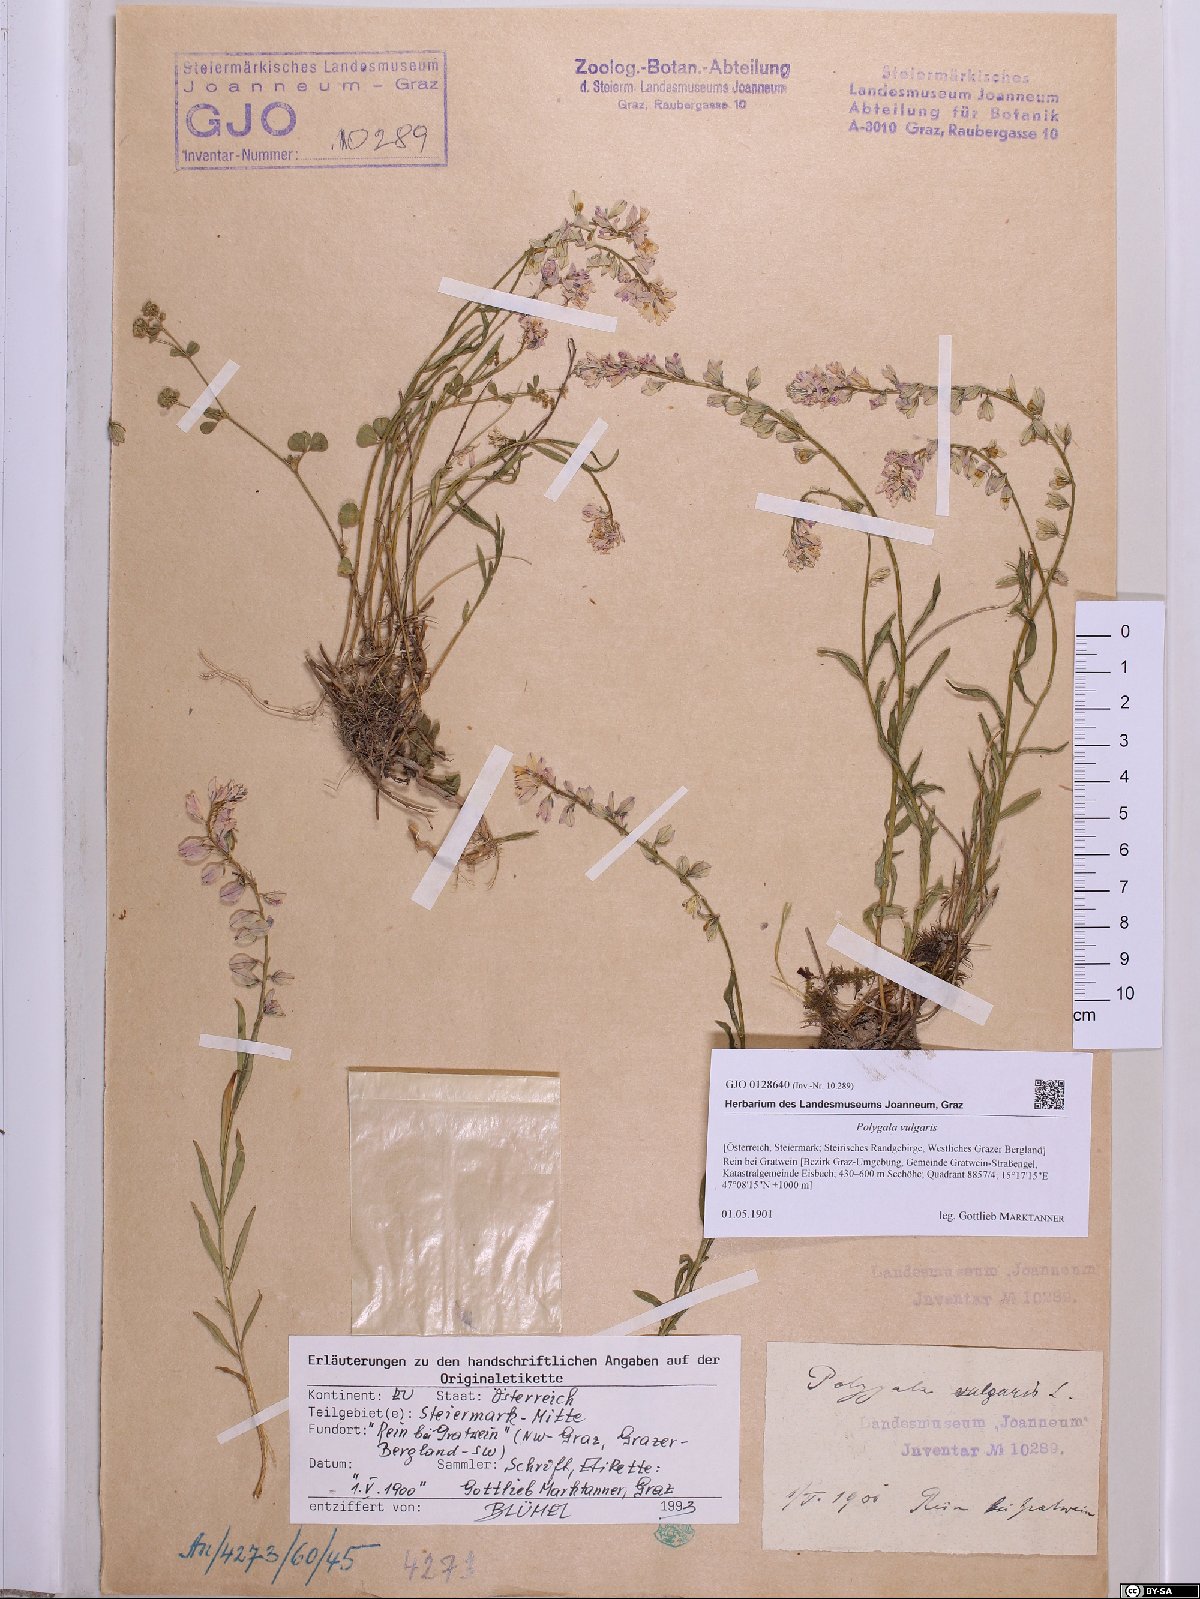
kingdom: Plantae
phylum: Tracheophyta
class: Magnoliopsida
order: Fabales
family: Polygalaceae
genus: Polygala
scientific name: Polygala vulgaris
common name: Common milkwort
